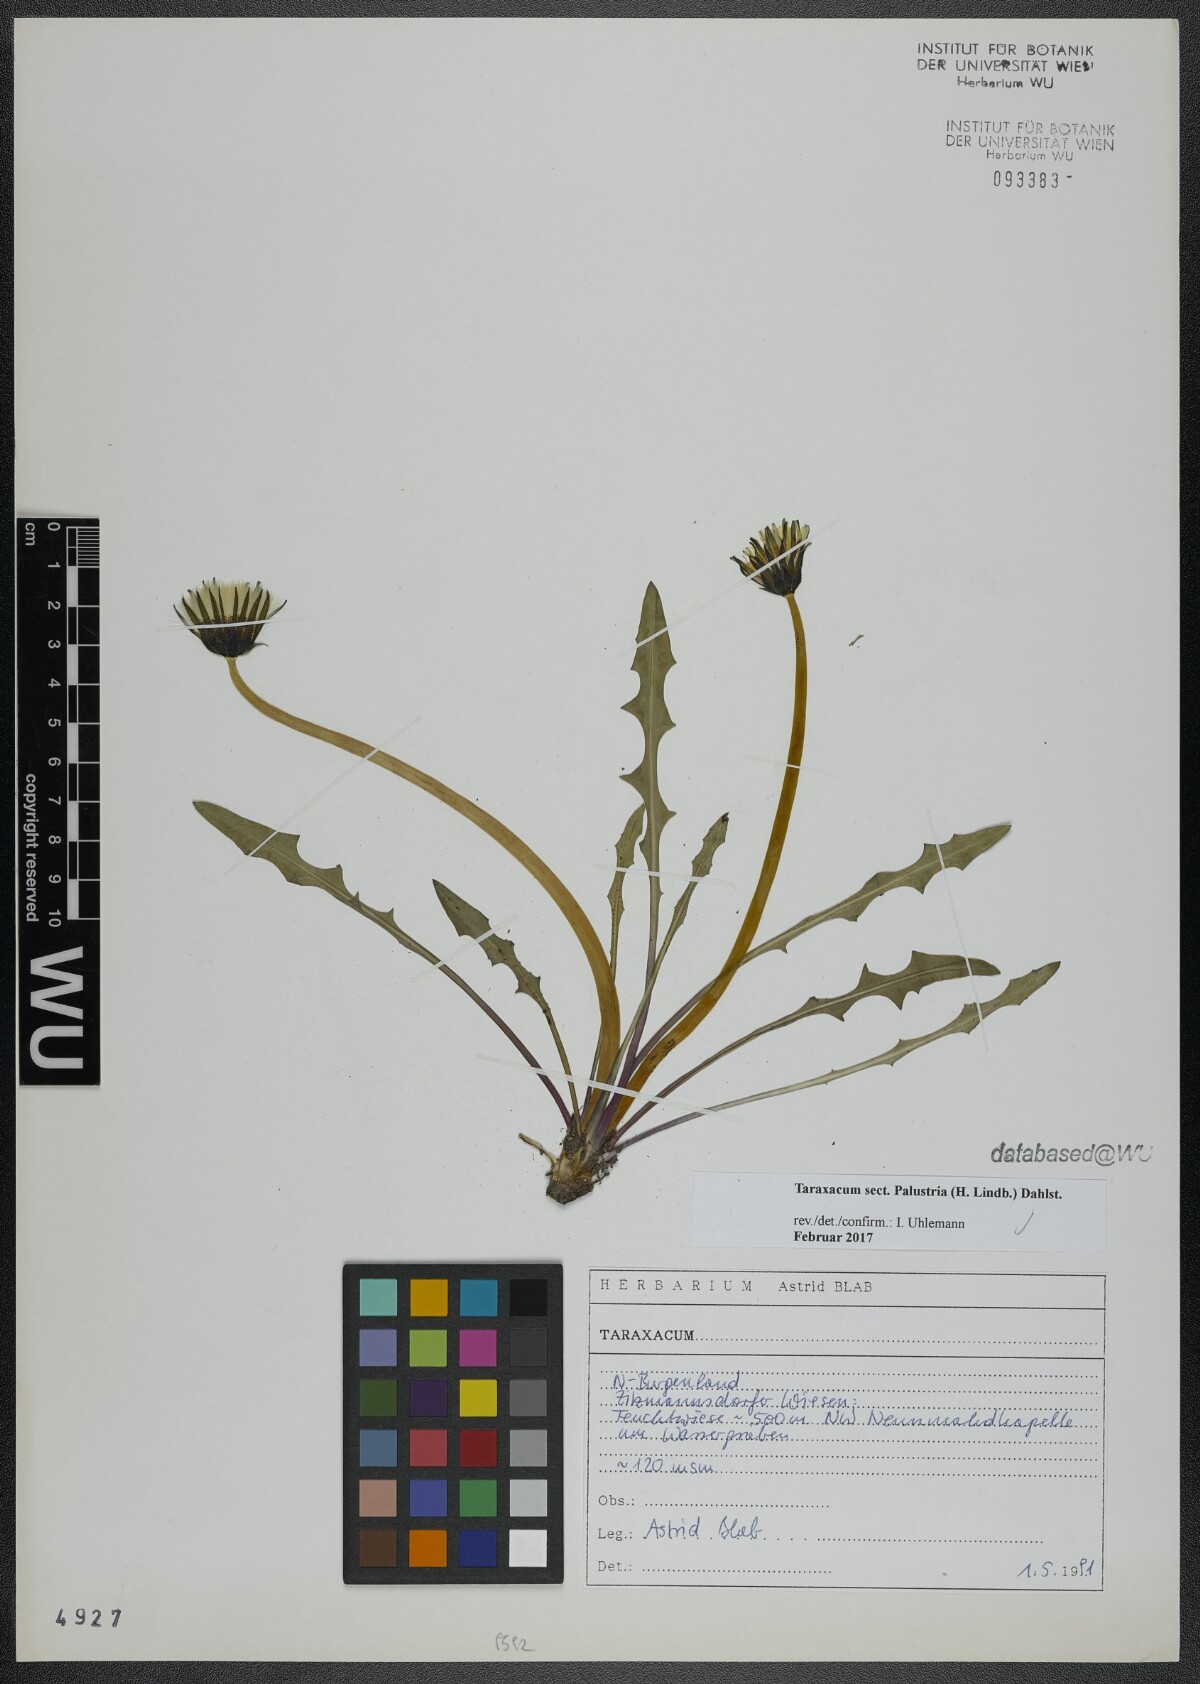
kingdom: Plantae
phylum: Tracheophyta
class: Magnoliopsida
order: Asterales
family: Asteraceae
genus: Taraxacum
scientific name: Taraxacum
